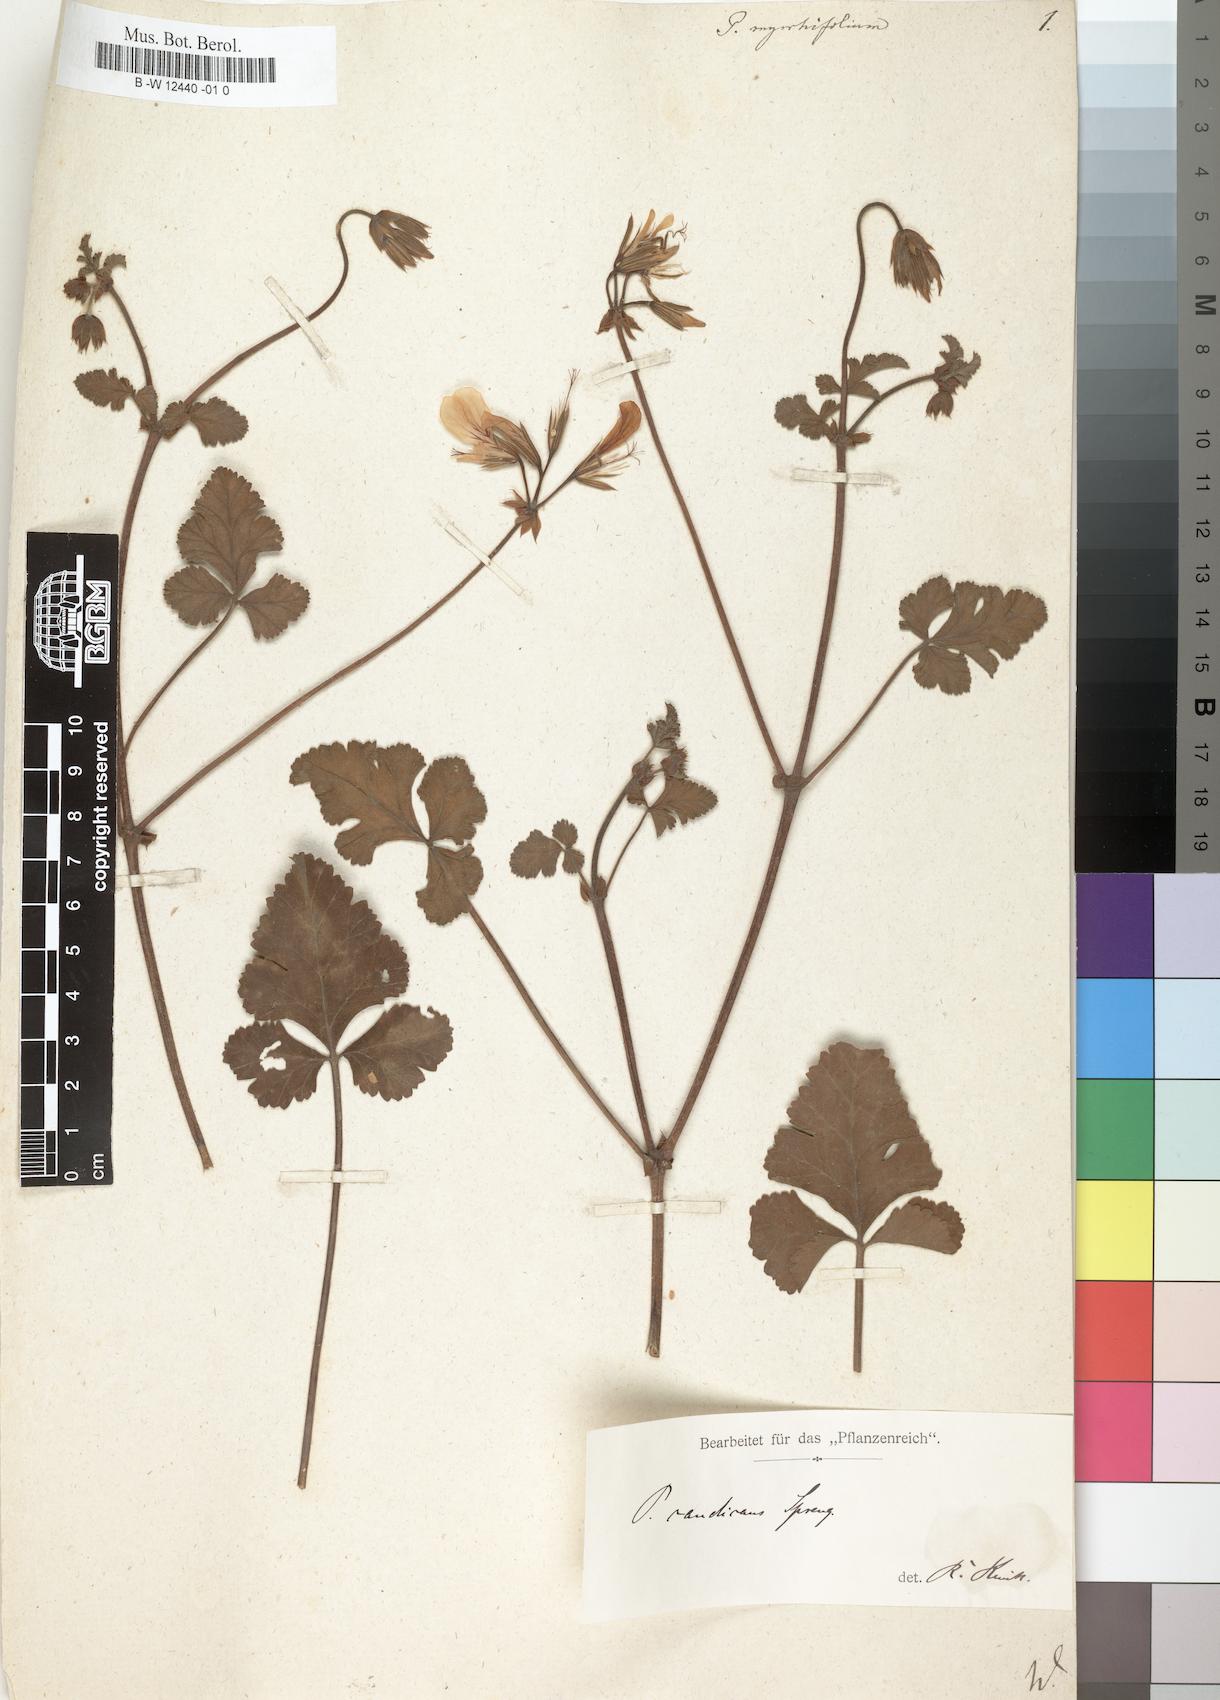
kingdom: Plantae
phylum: Tracheophyta
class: Magnoliopsida
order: Geraniales
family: Geraniaceae
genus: Pelargonium
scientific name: Pelargonium myrrhifolium
